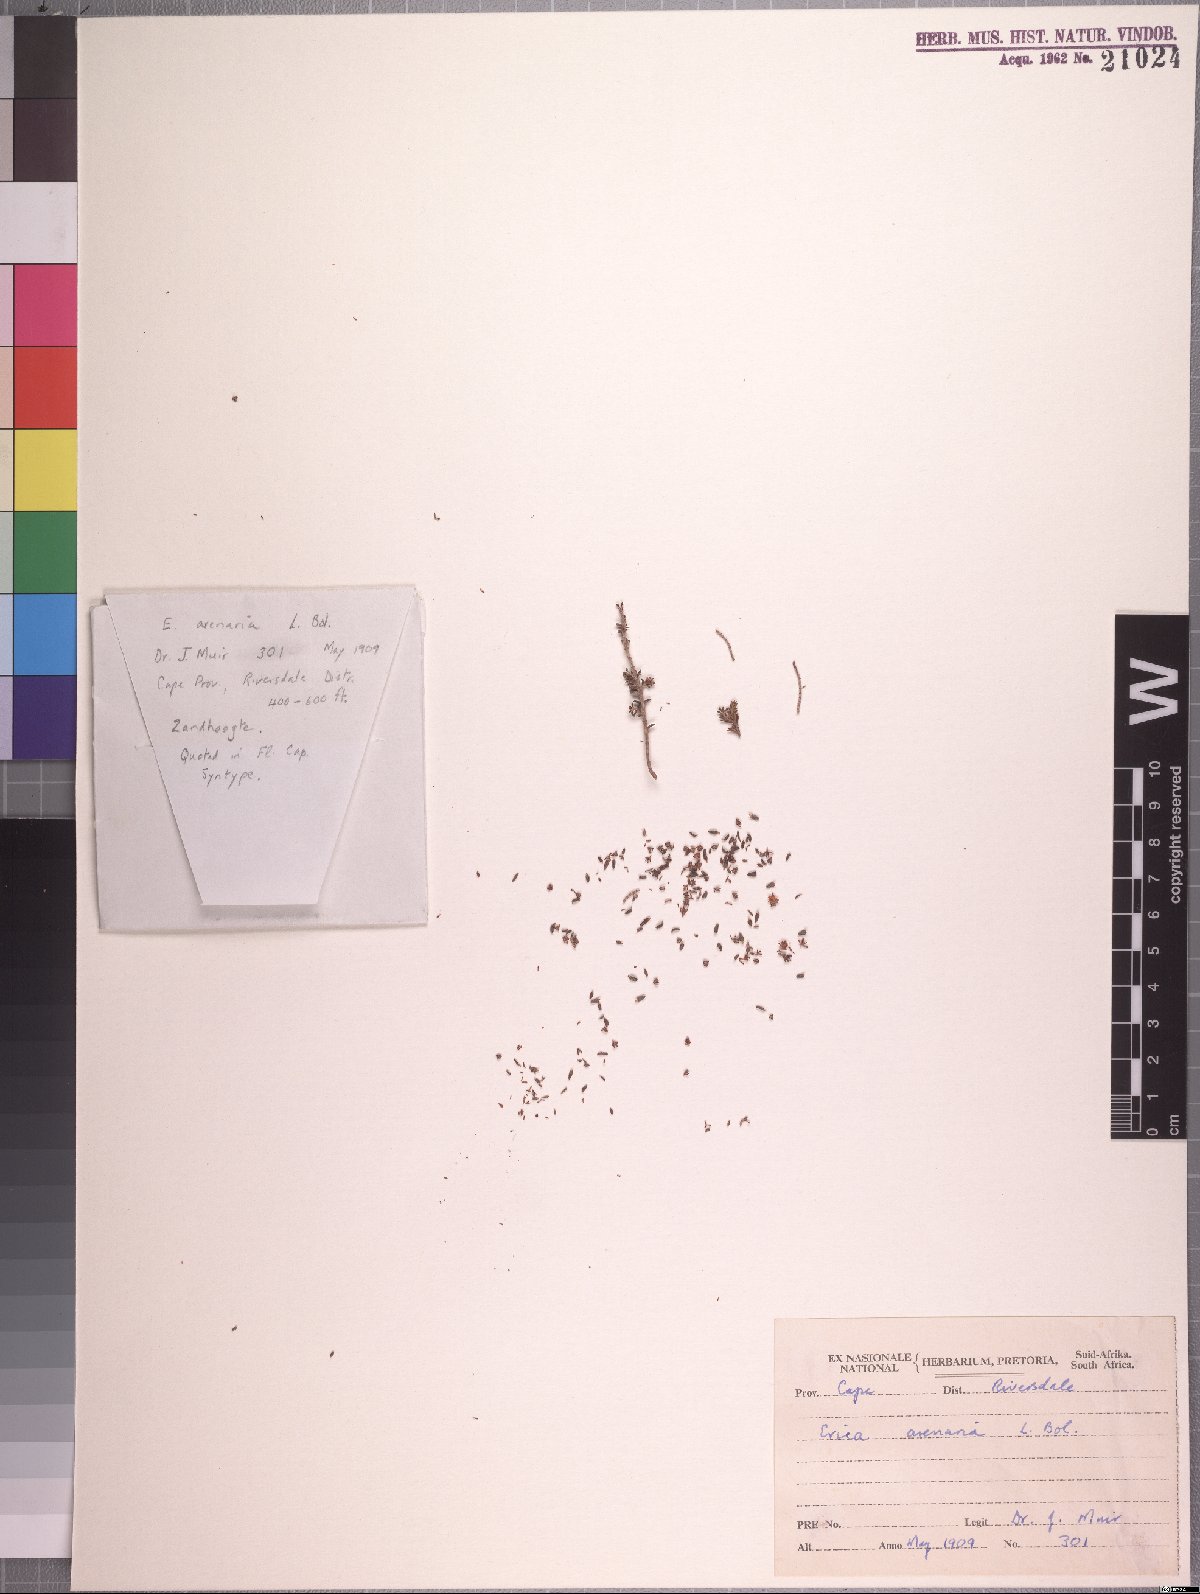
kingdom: Plantae
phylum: Tracheophyta
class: Magnoliopsida
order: Ericales
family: Ericaceae
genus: Erica
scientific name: Erica arenaria
